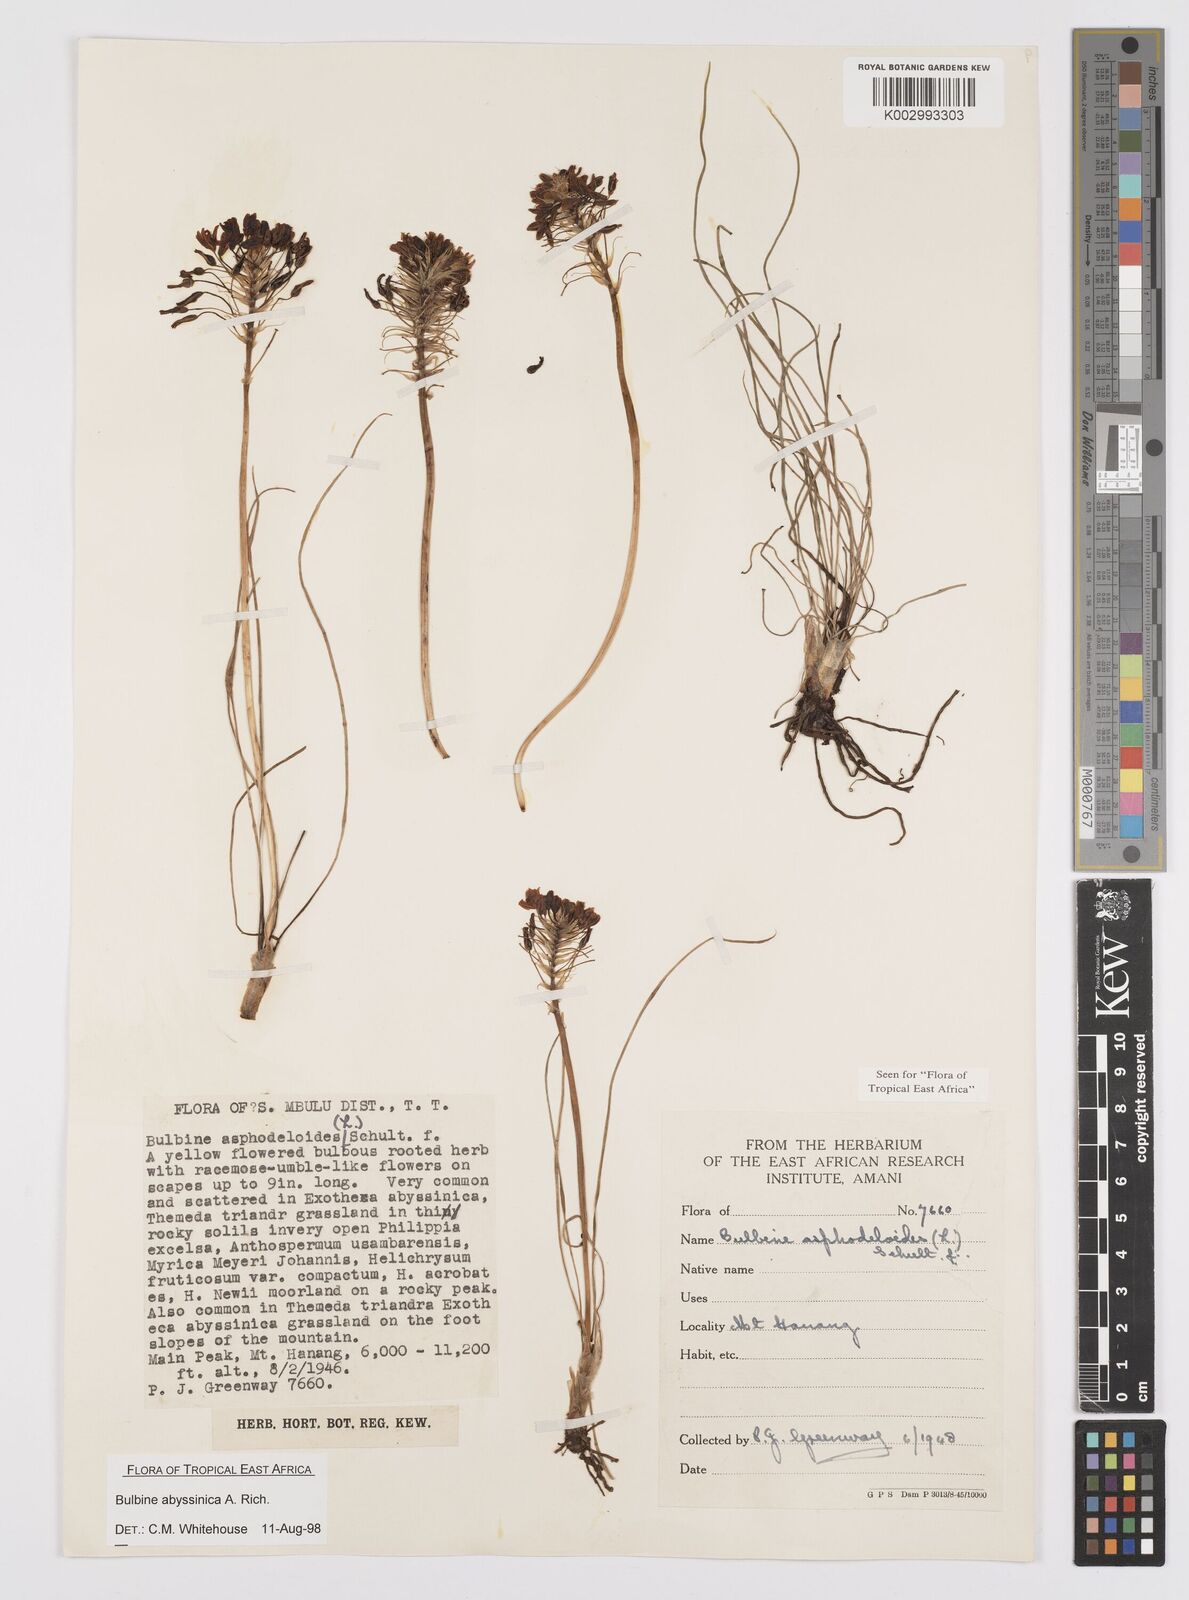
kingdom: Plantae
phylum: Tracheophyta
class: Liliopsida
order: Asparagales
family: Asphodelaceae
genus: Bulbine
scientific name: Bulbine abyssinica
